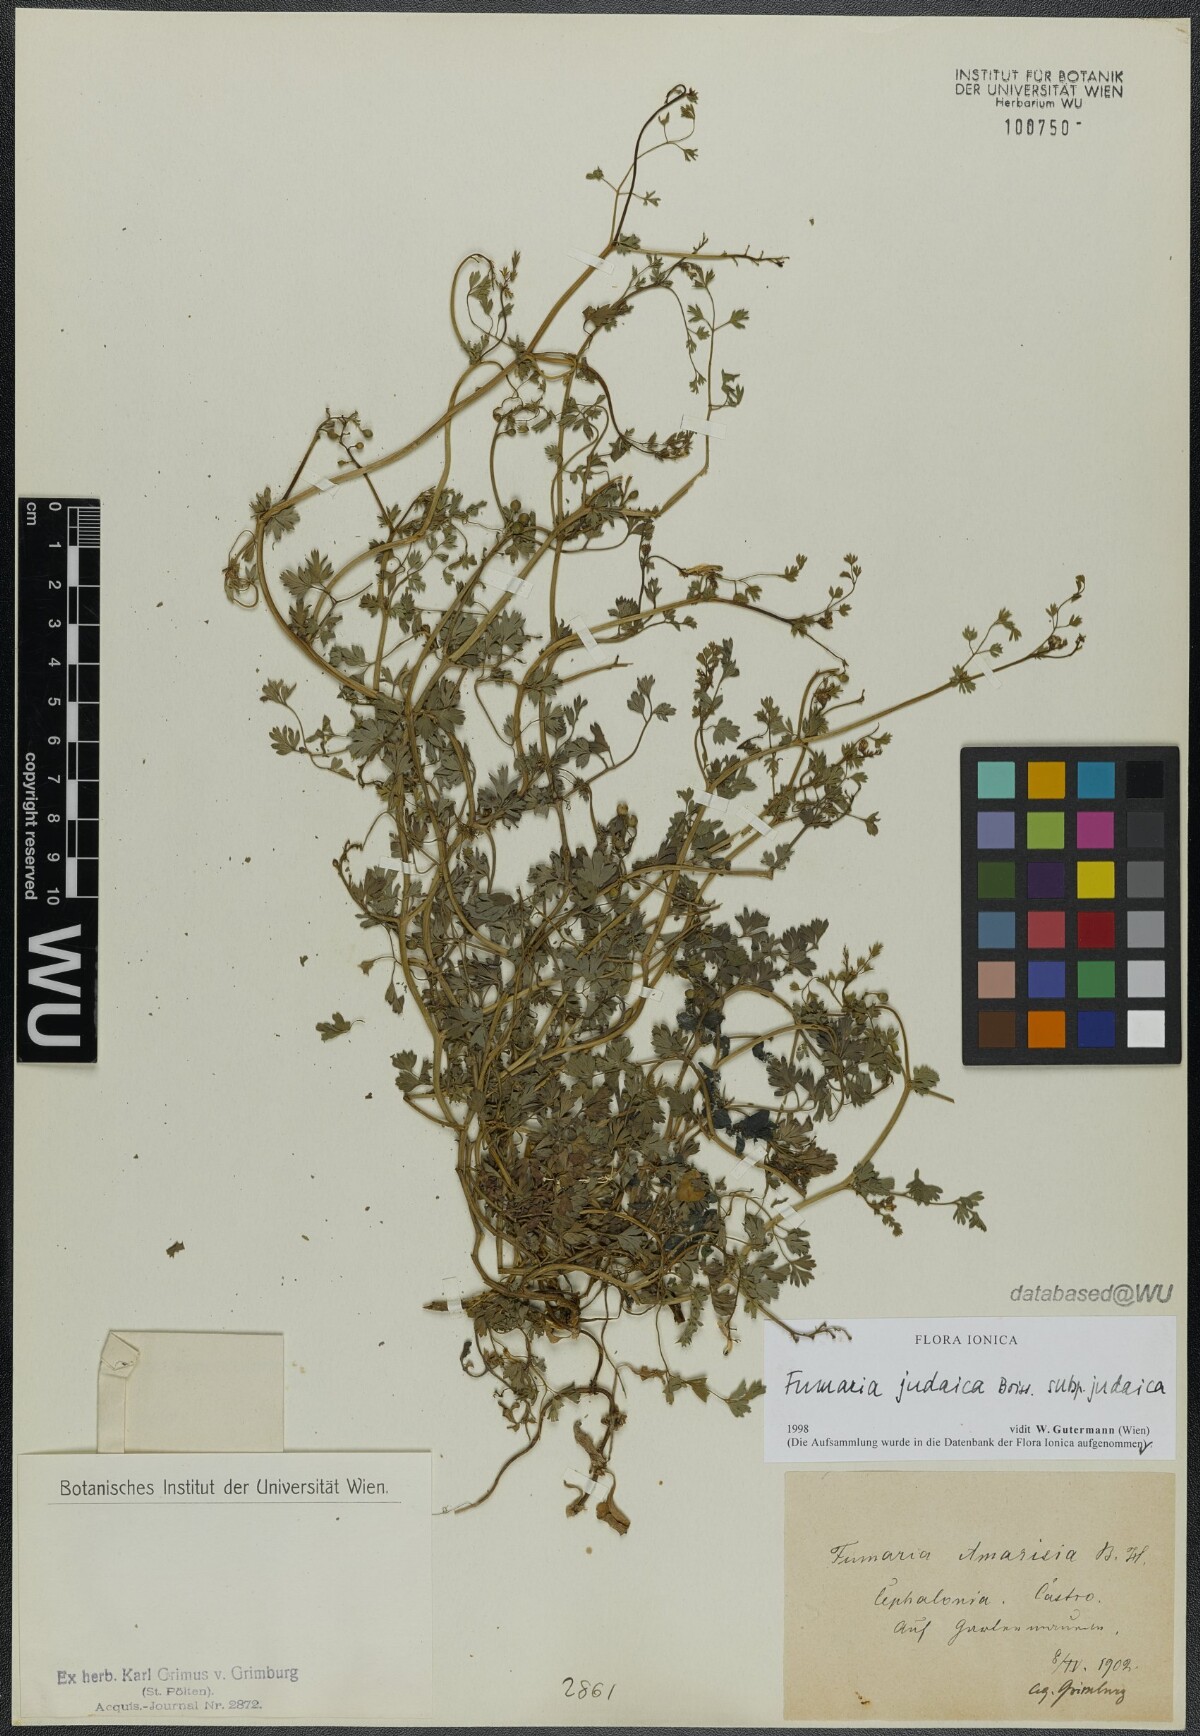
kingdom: Plantae
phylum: Tracheophyta
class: Magnoliopsida
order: Ranunculales
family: Papaveraceae
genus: Fumaria
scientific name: Fumaria judaica
